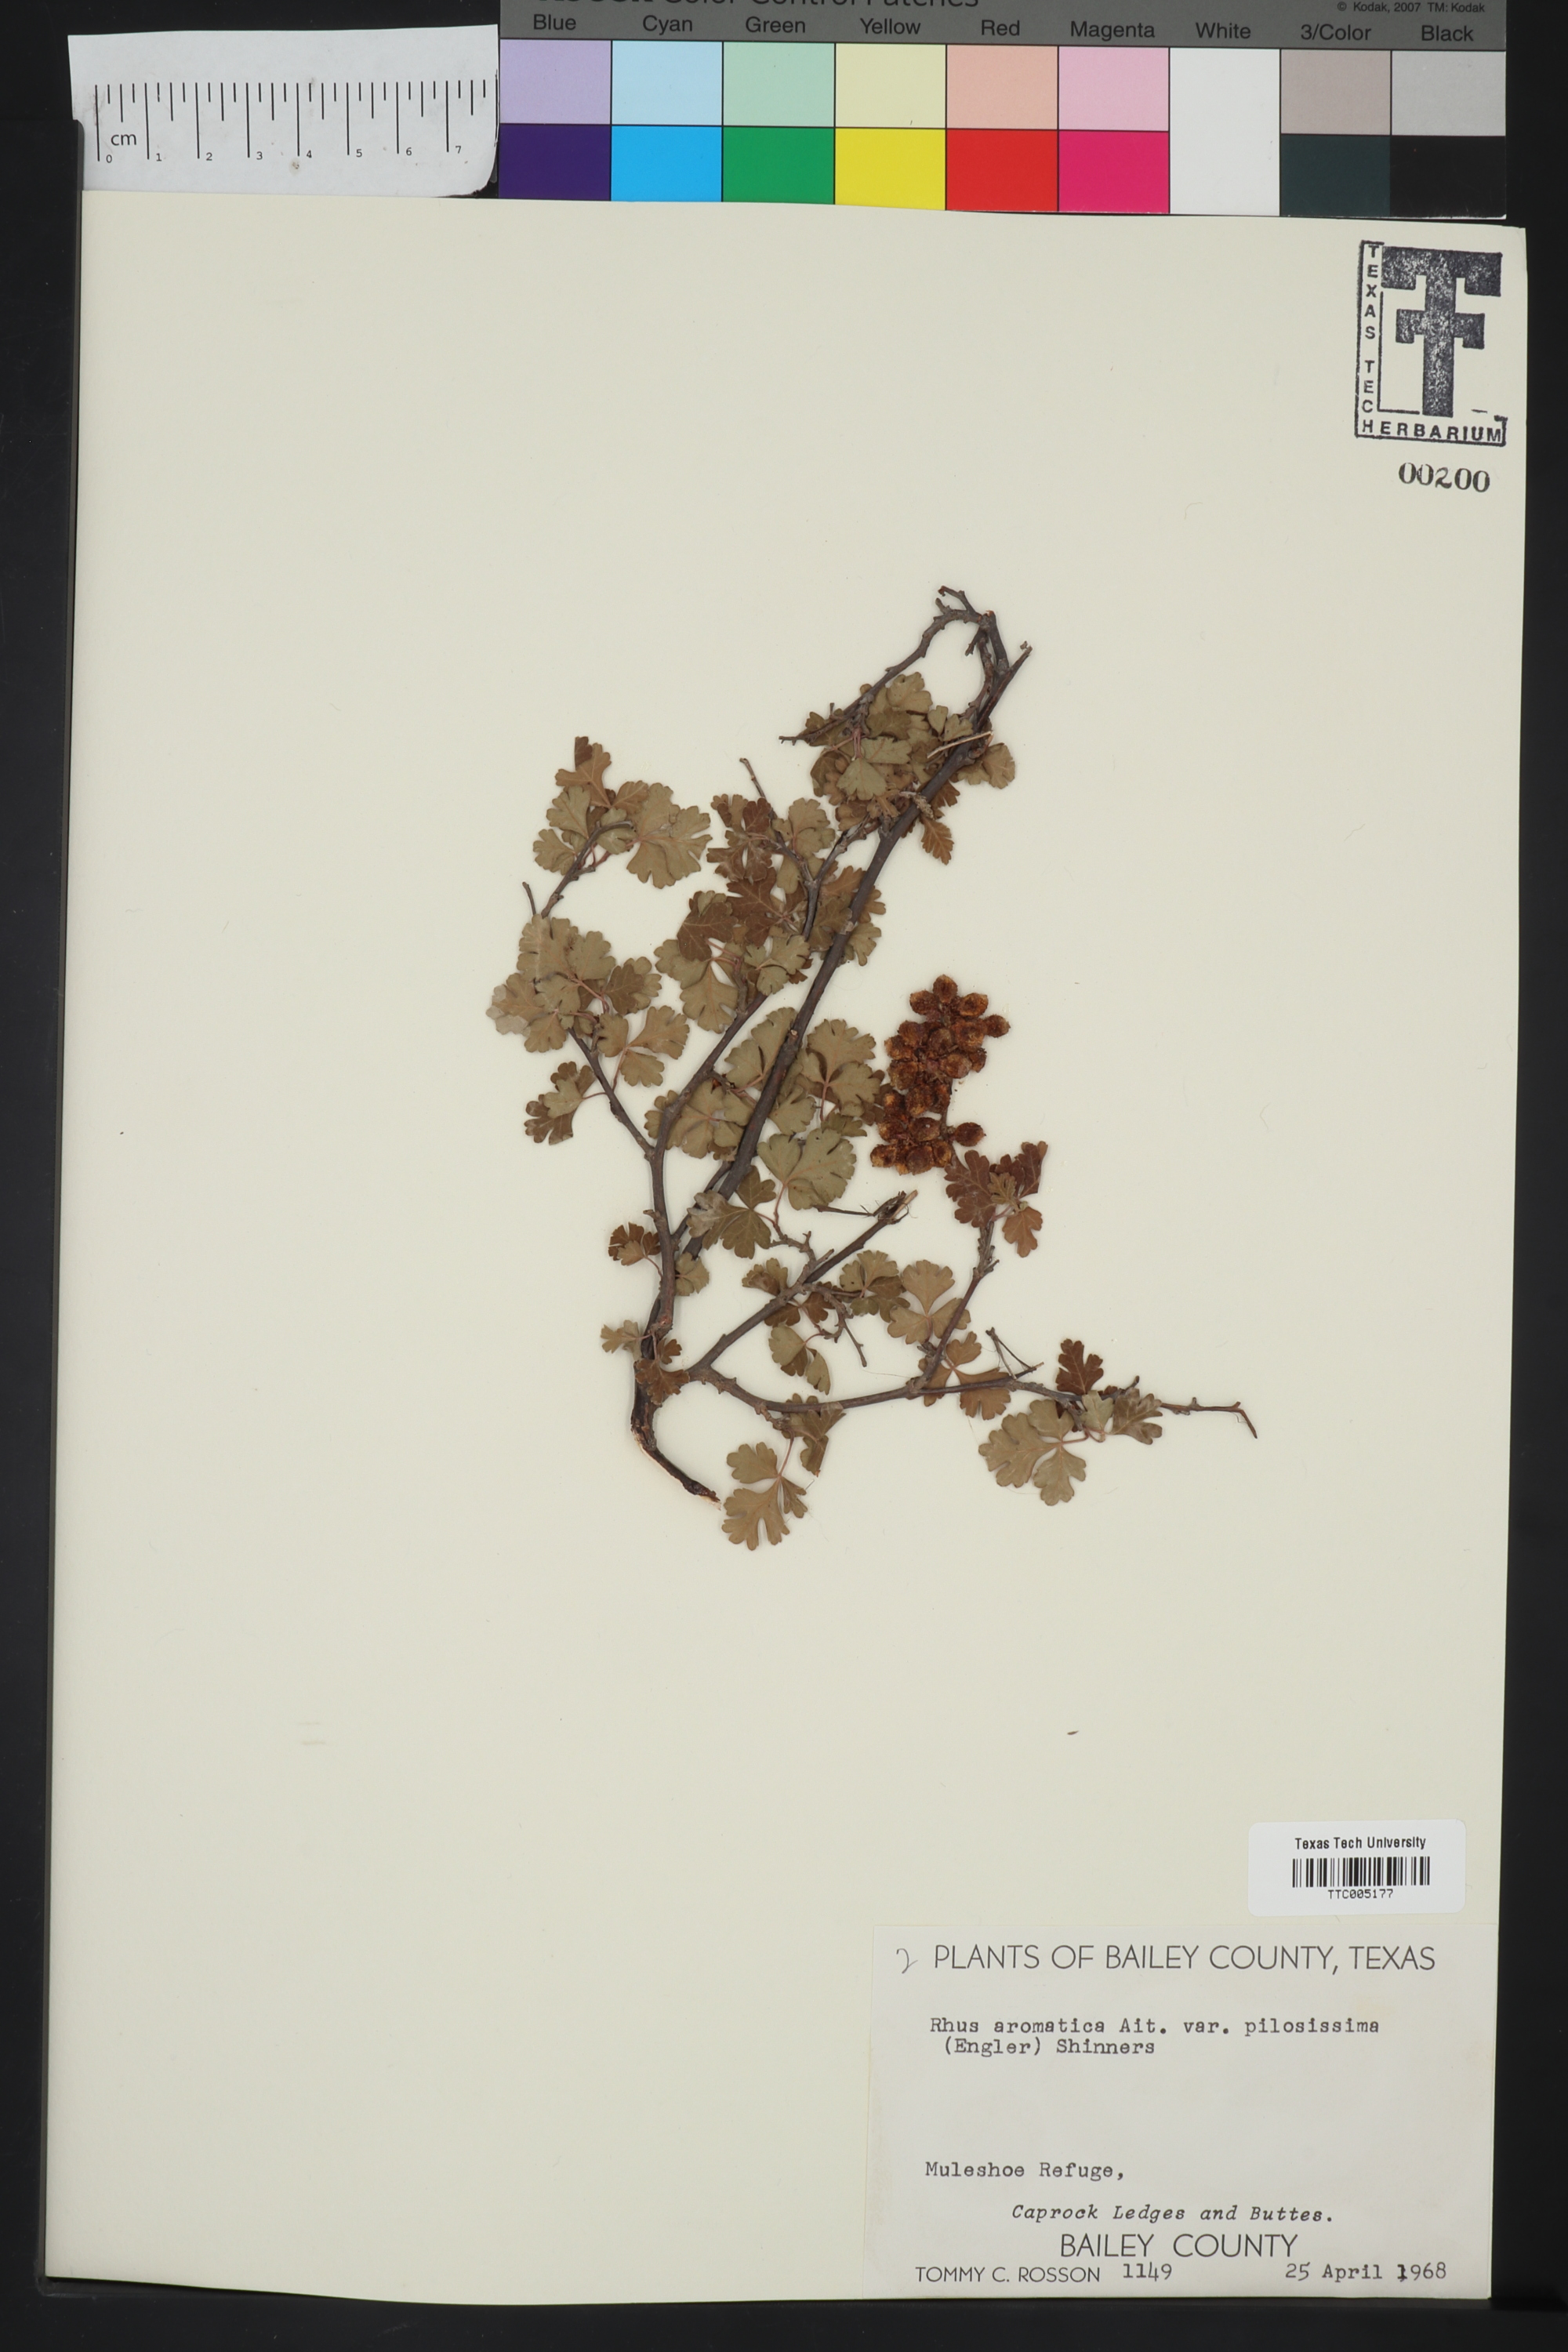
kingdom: Plantae
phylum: Tracheophyta
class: Magnoliopsida
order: Sapindales
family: Anacardiaceae
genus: Rhus
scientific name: Rhus trilobata
